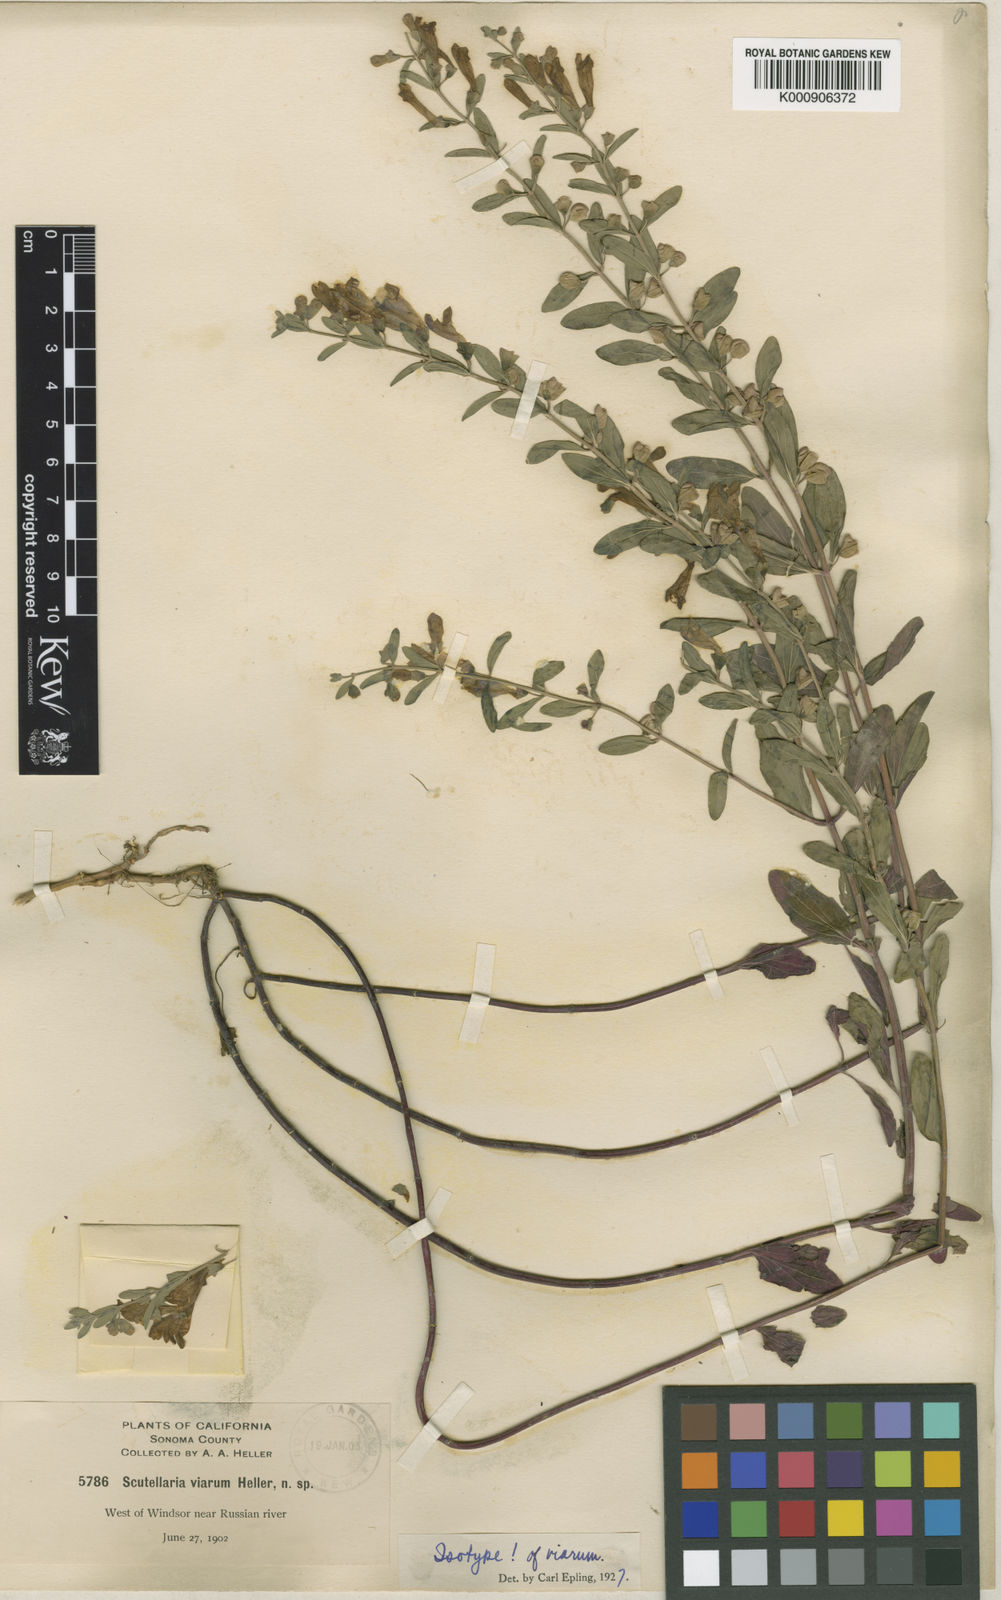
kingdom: Plantae
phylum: Tracheophyta
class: Magnoliopsida
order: Lamiales
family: Lamiaceae
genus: Scutellaria
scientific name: Scutellaria antirrhinoides
